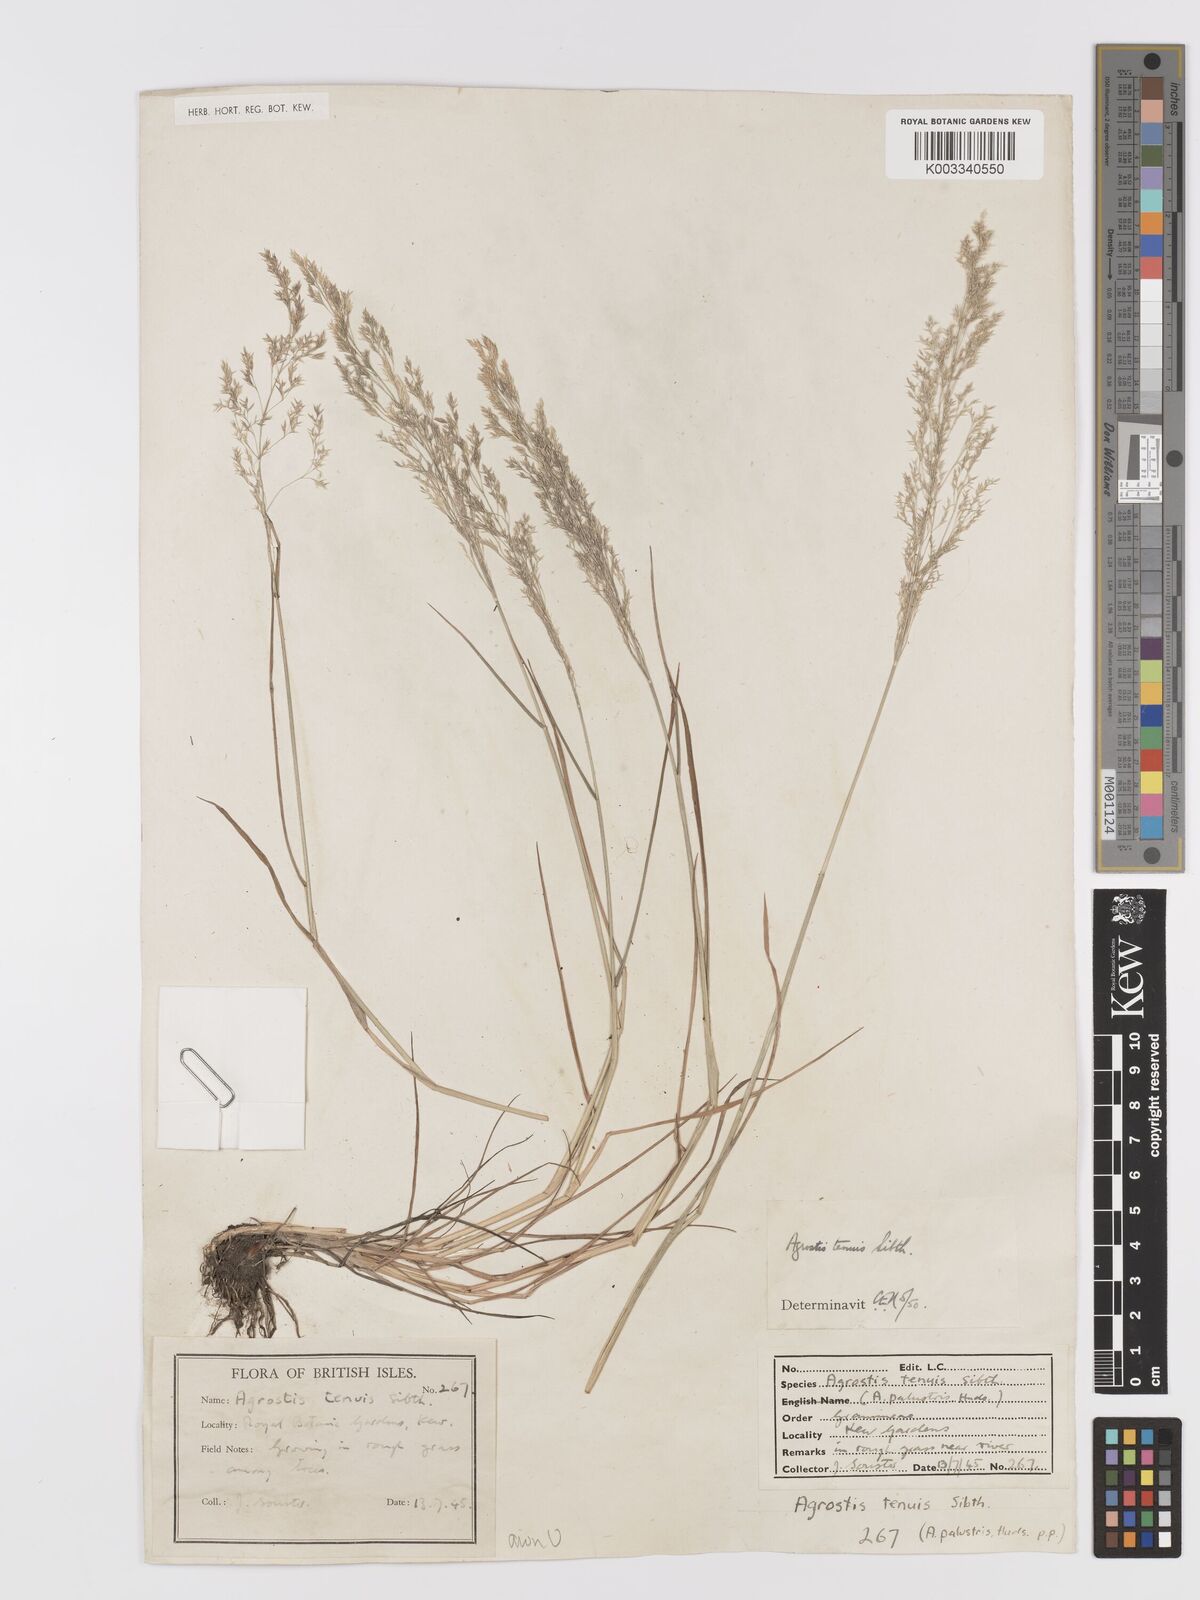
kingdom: Plantae
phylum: Tracheophyta
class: Liliopsida
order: Poales
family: Poaceae
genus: Agrostis
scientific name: Agrostis capillaris
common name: Colonial bentgrass
